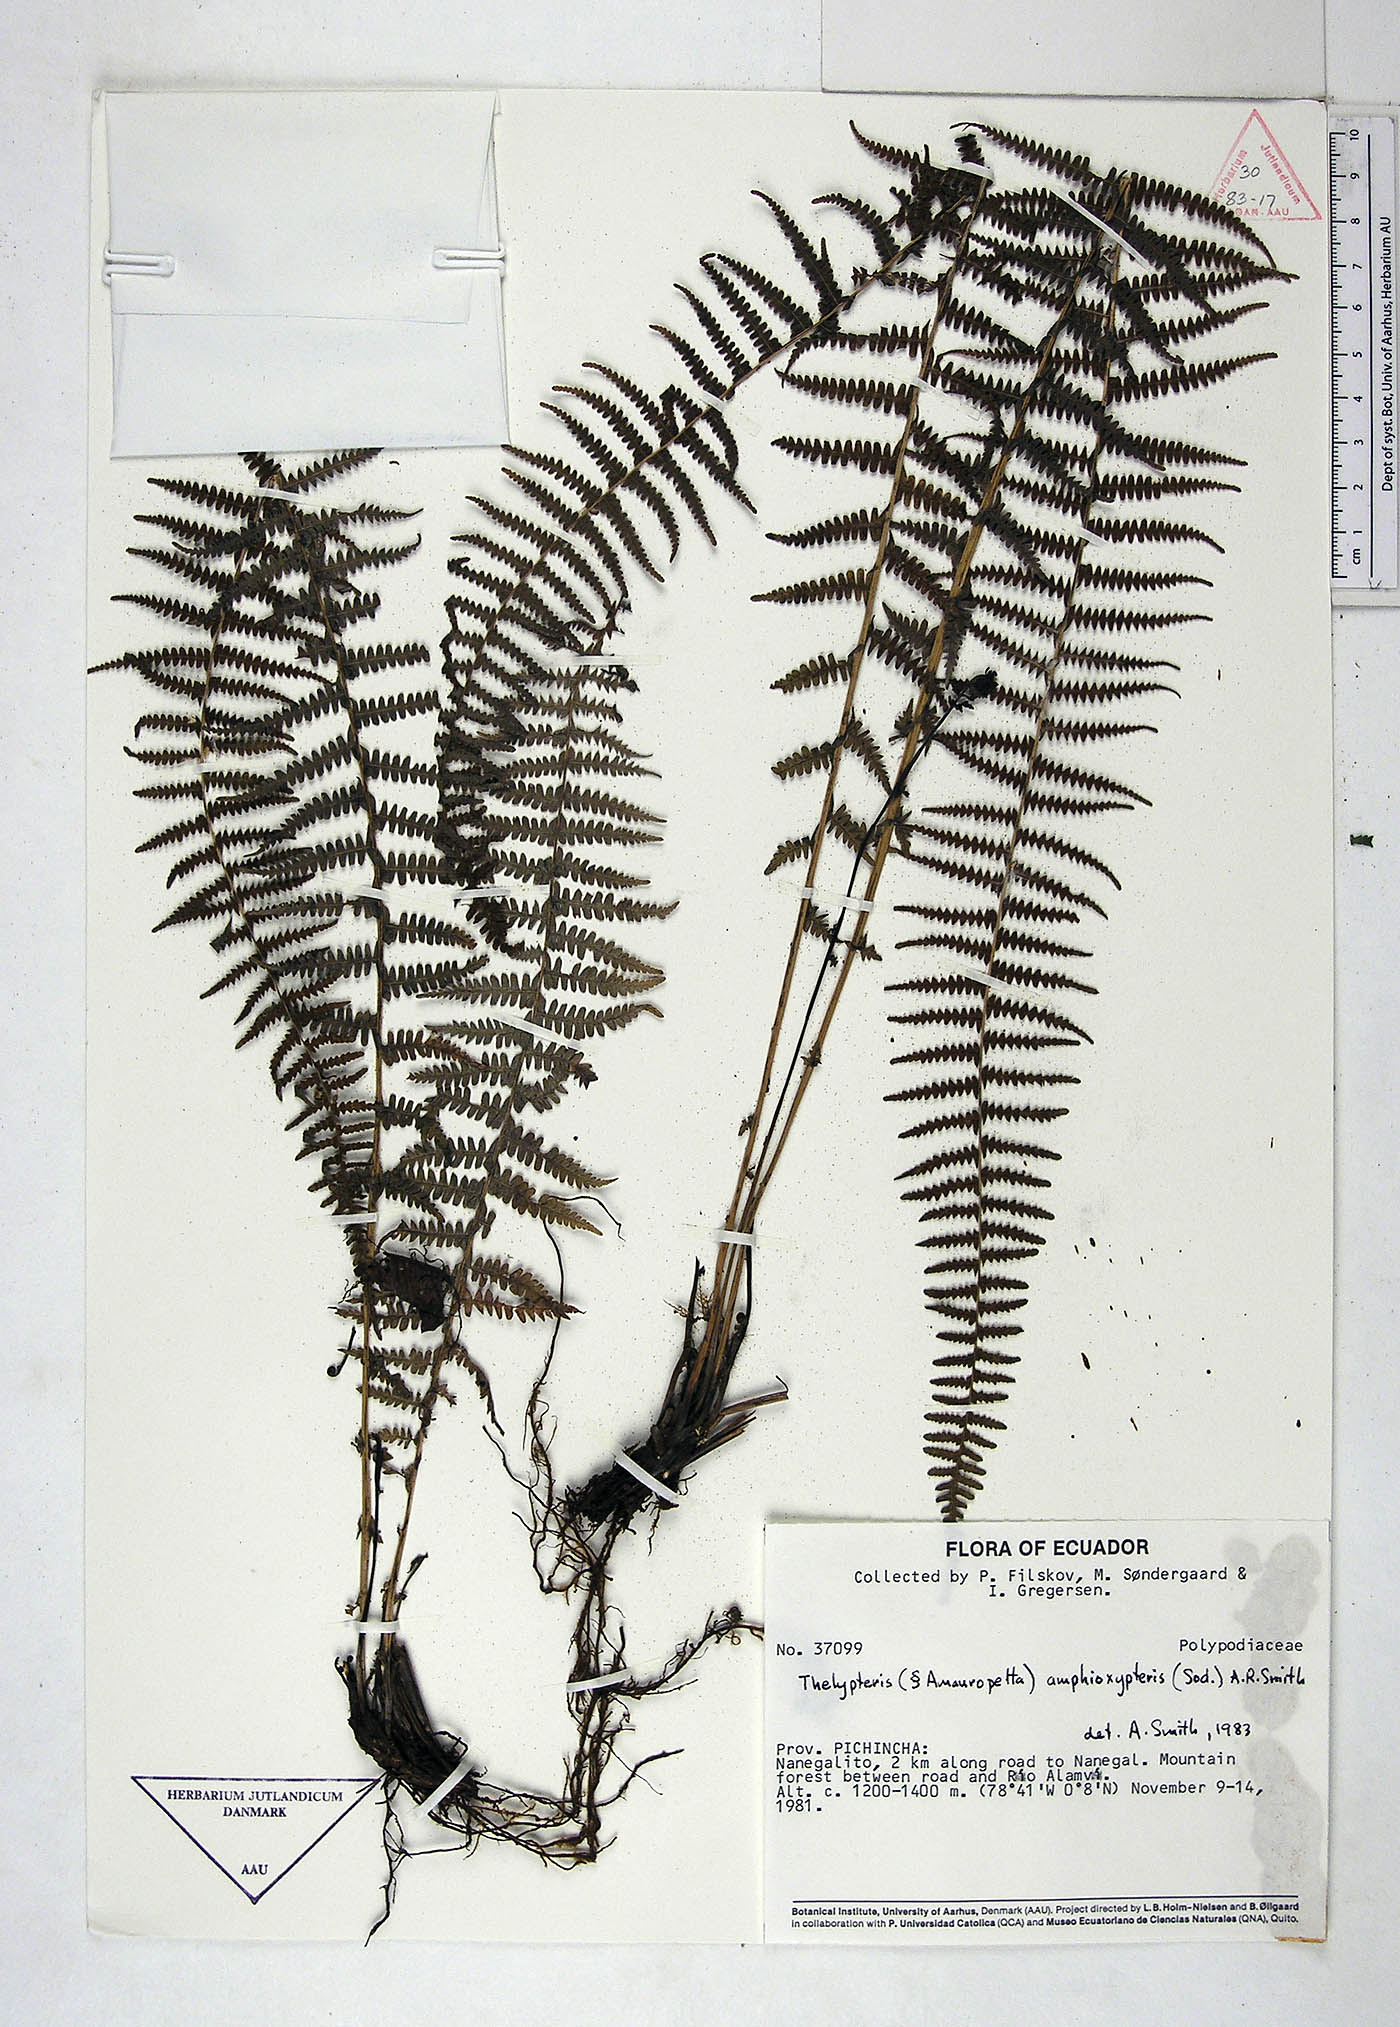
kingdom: Plantae
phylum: Tracheophyta
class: Polypodiopsida
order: Polypodiales
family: Thelypteridaceae
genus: Amauropelta
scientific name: Amauropelta amphioxypteris
